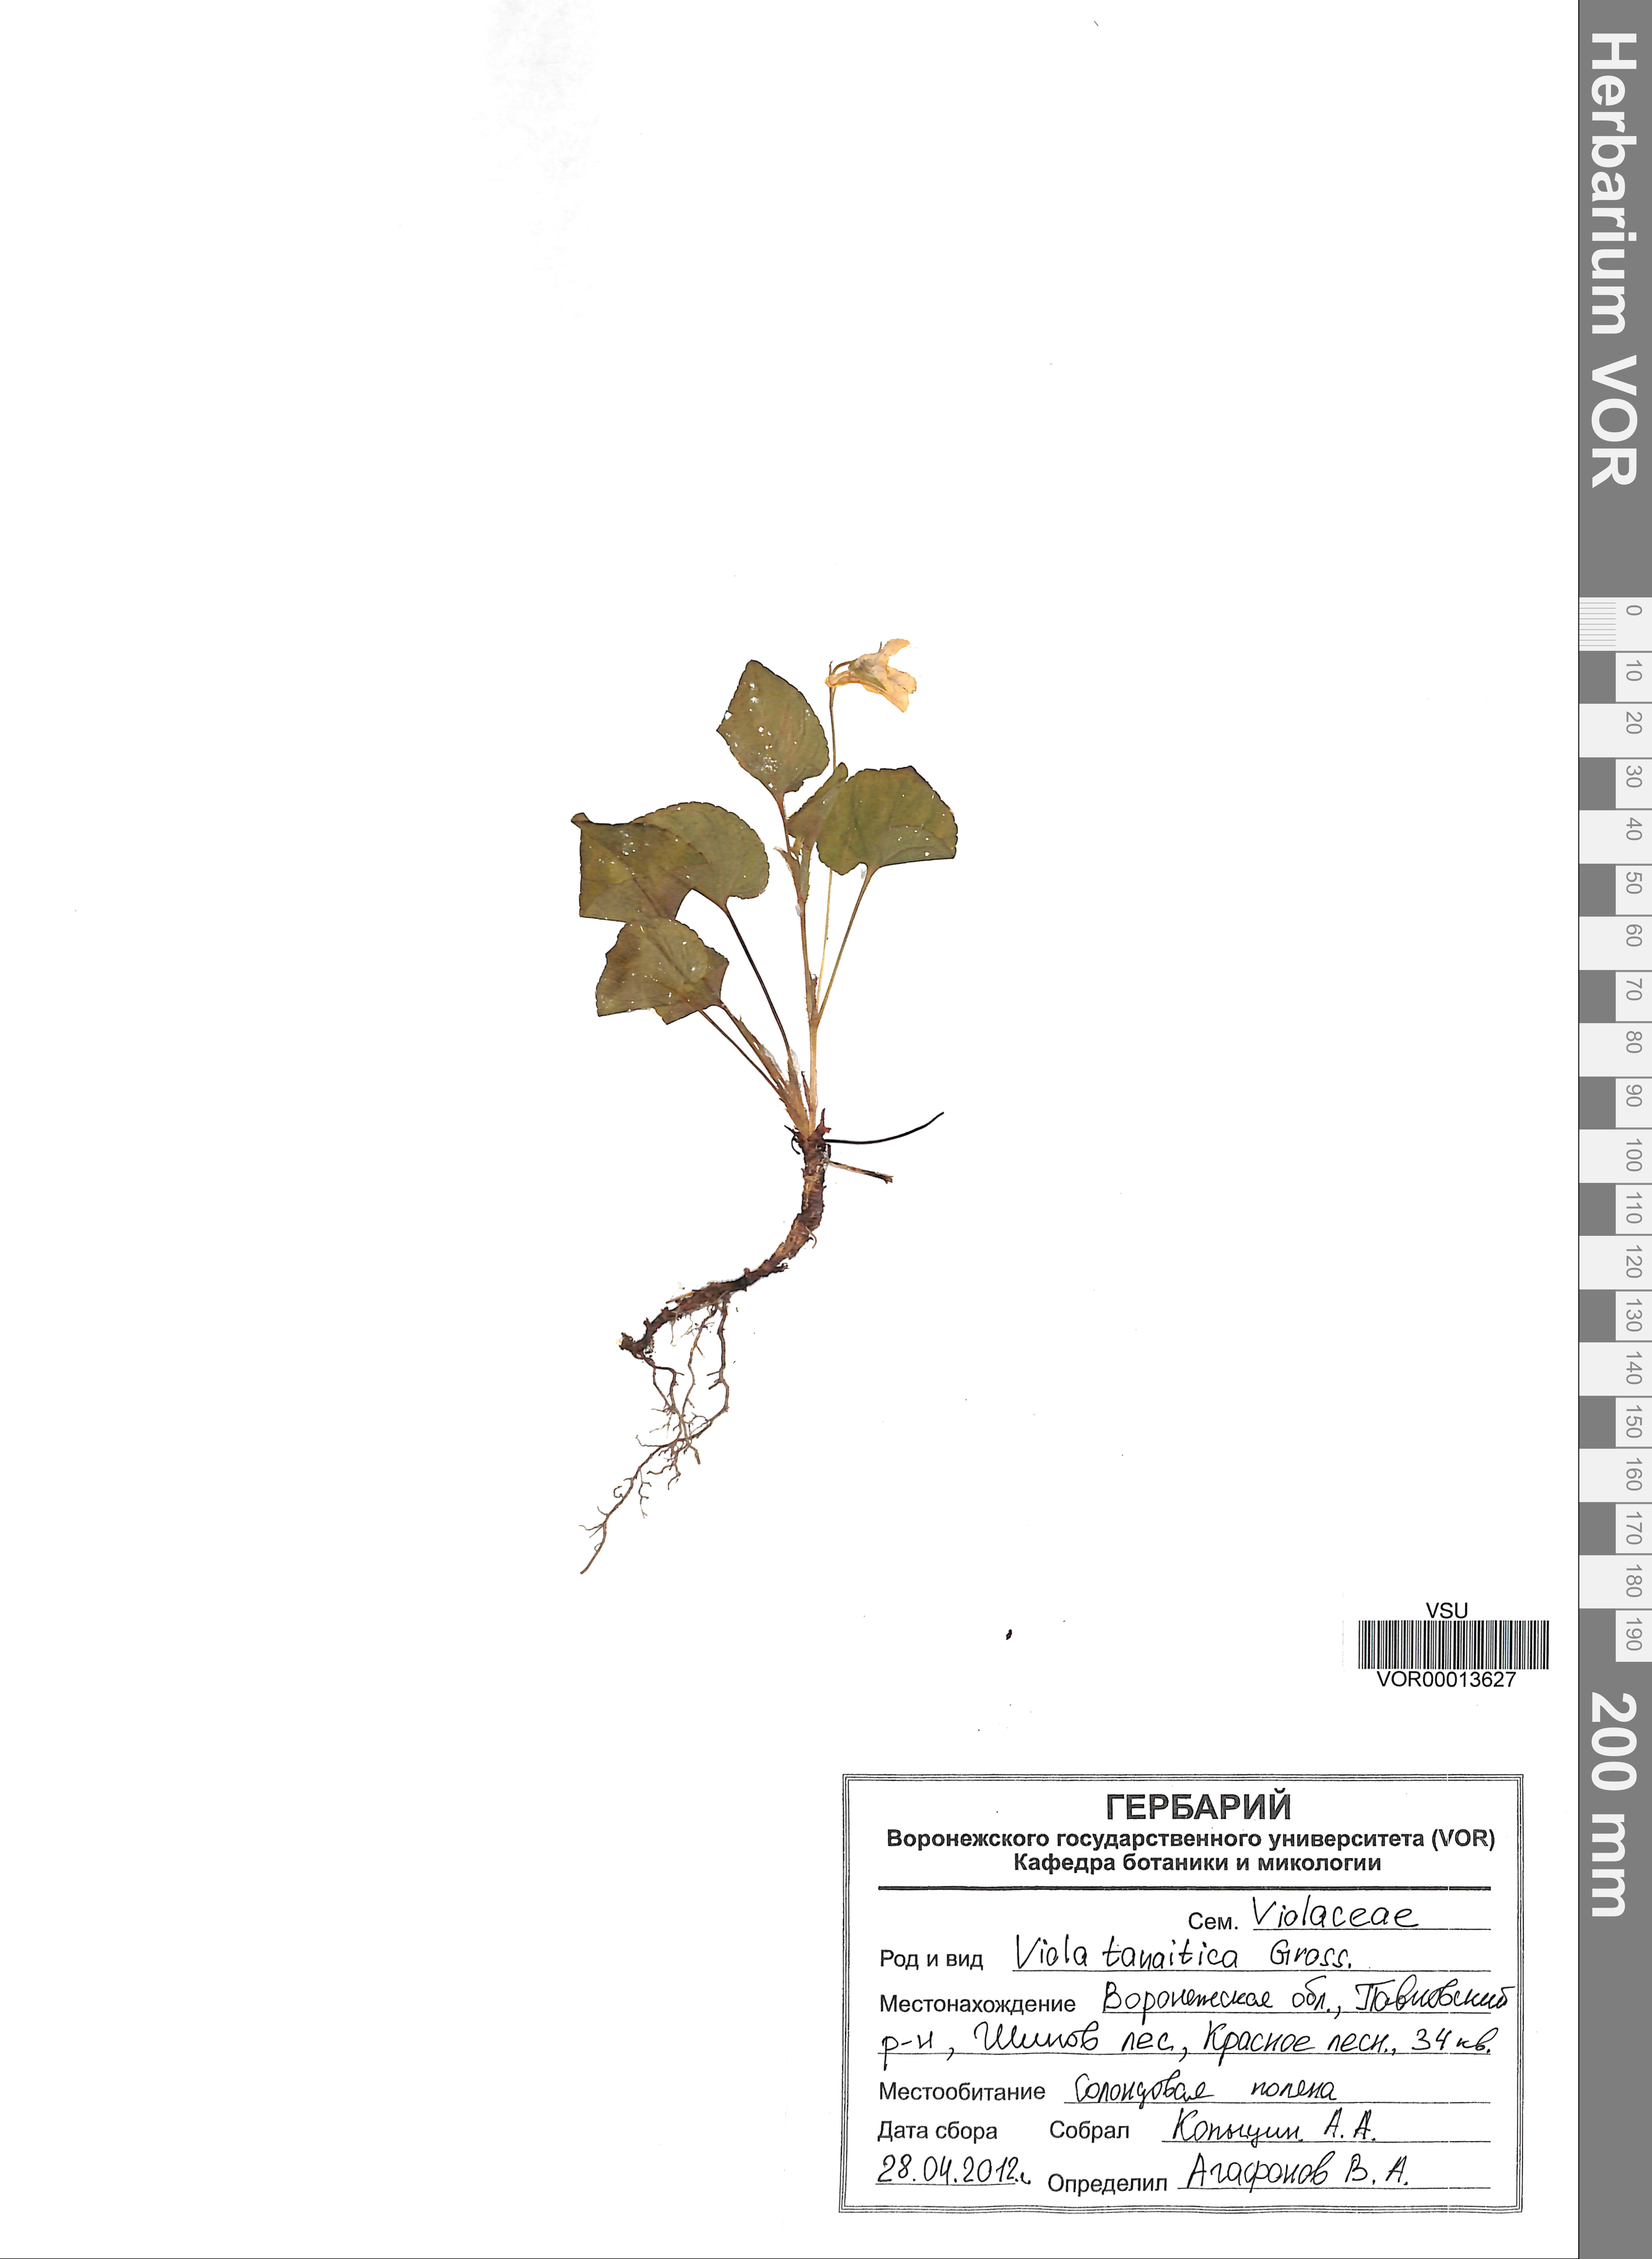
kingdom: Plantae
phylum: Tracheophyta
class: Magnoliopsida
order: Malpighiales
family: Violaceae
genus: Viola
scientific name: Viola tanaitica
